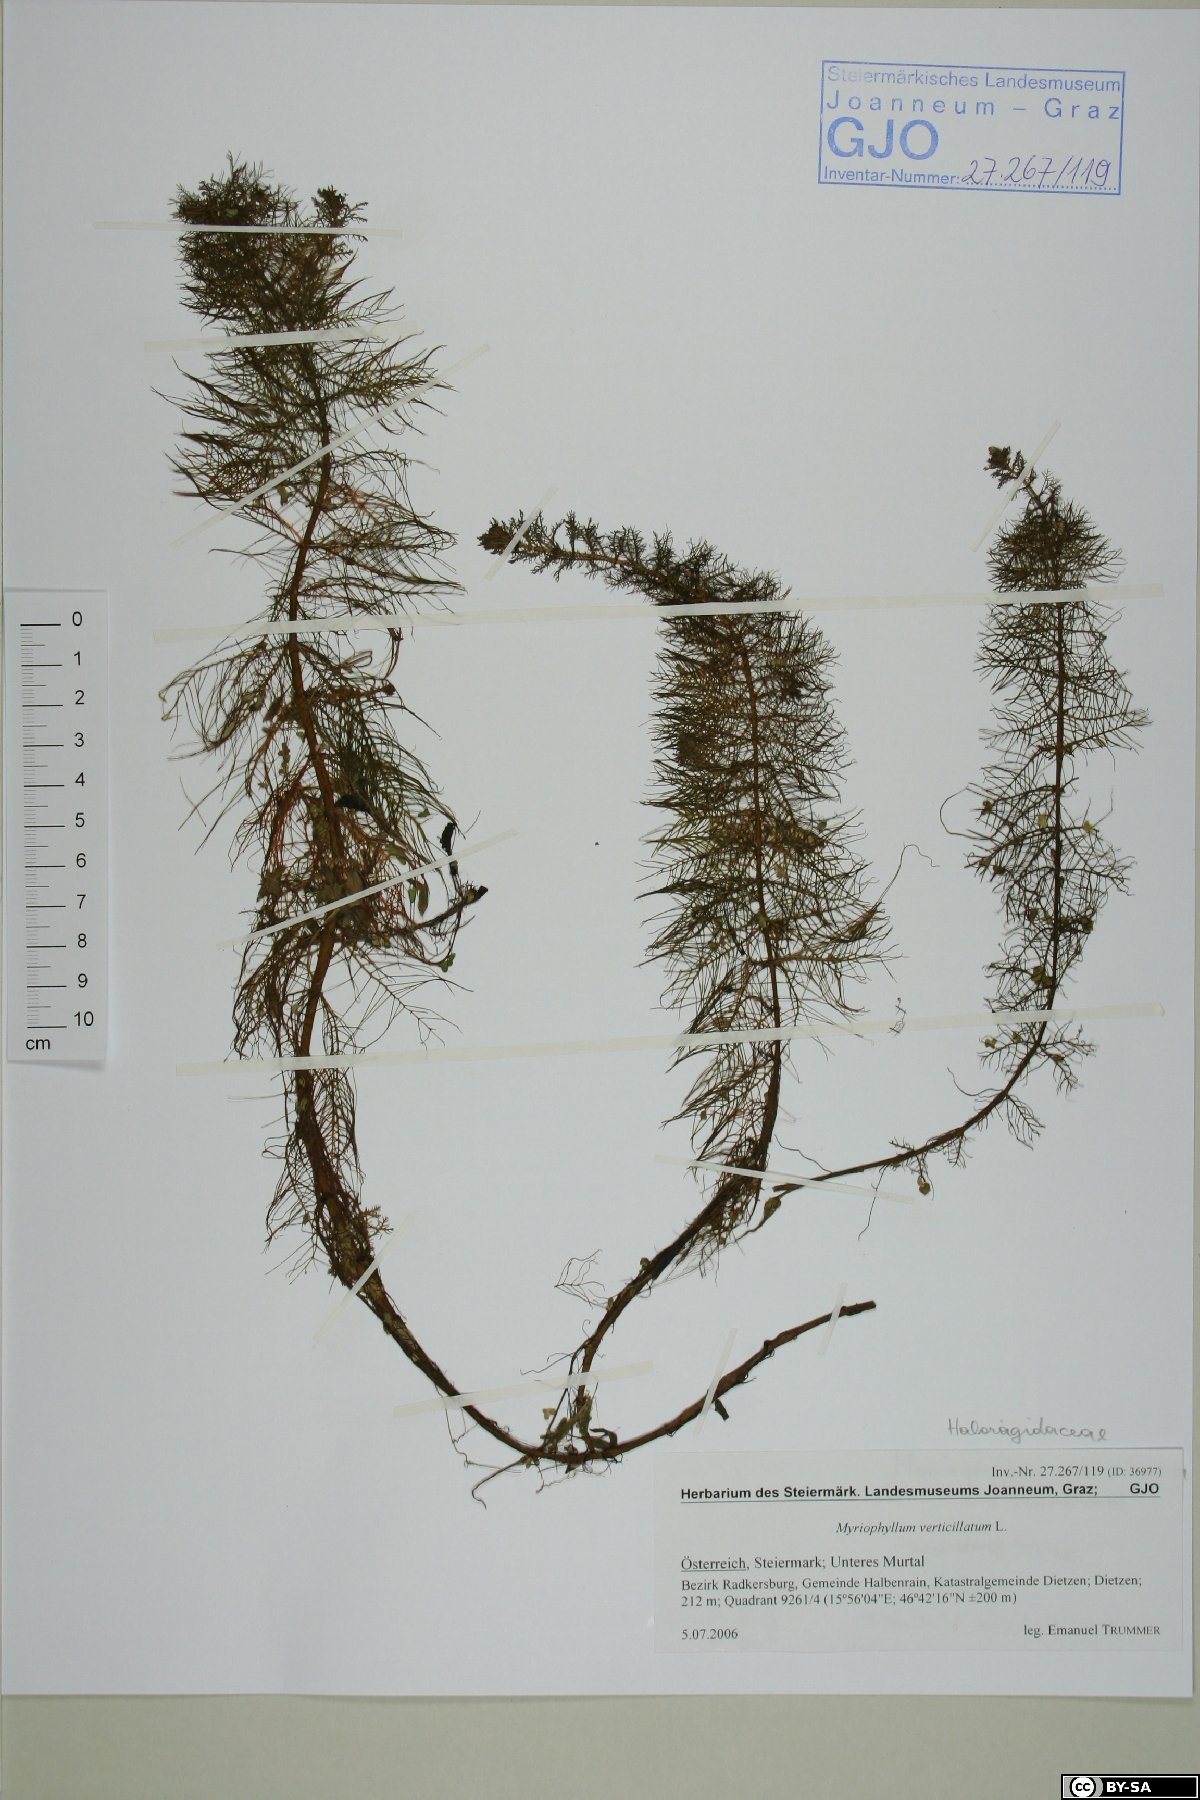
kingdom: Plantae
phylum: Tracheophyta
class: Magnoliopsida
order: Saxifragales
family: Haloragaceae
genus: Myriophyllum
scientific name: Myriophyllum verticillatum
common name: Whorled water-milfoil
